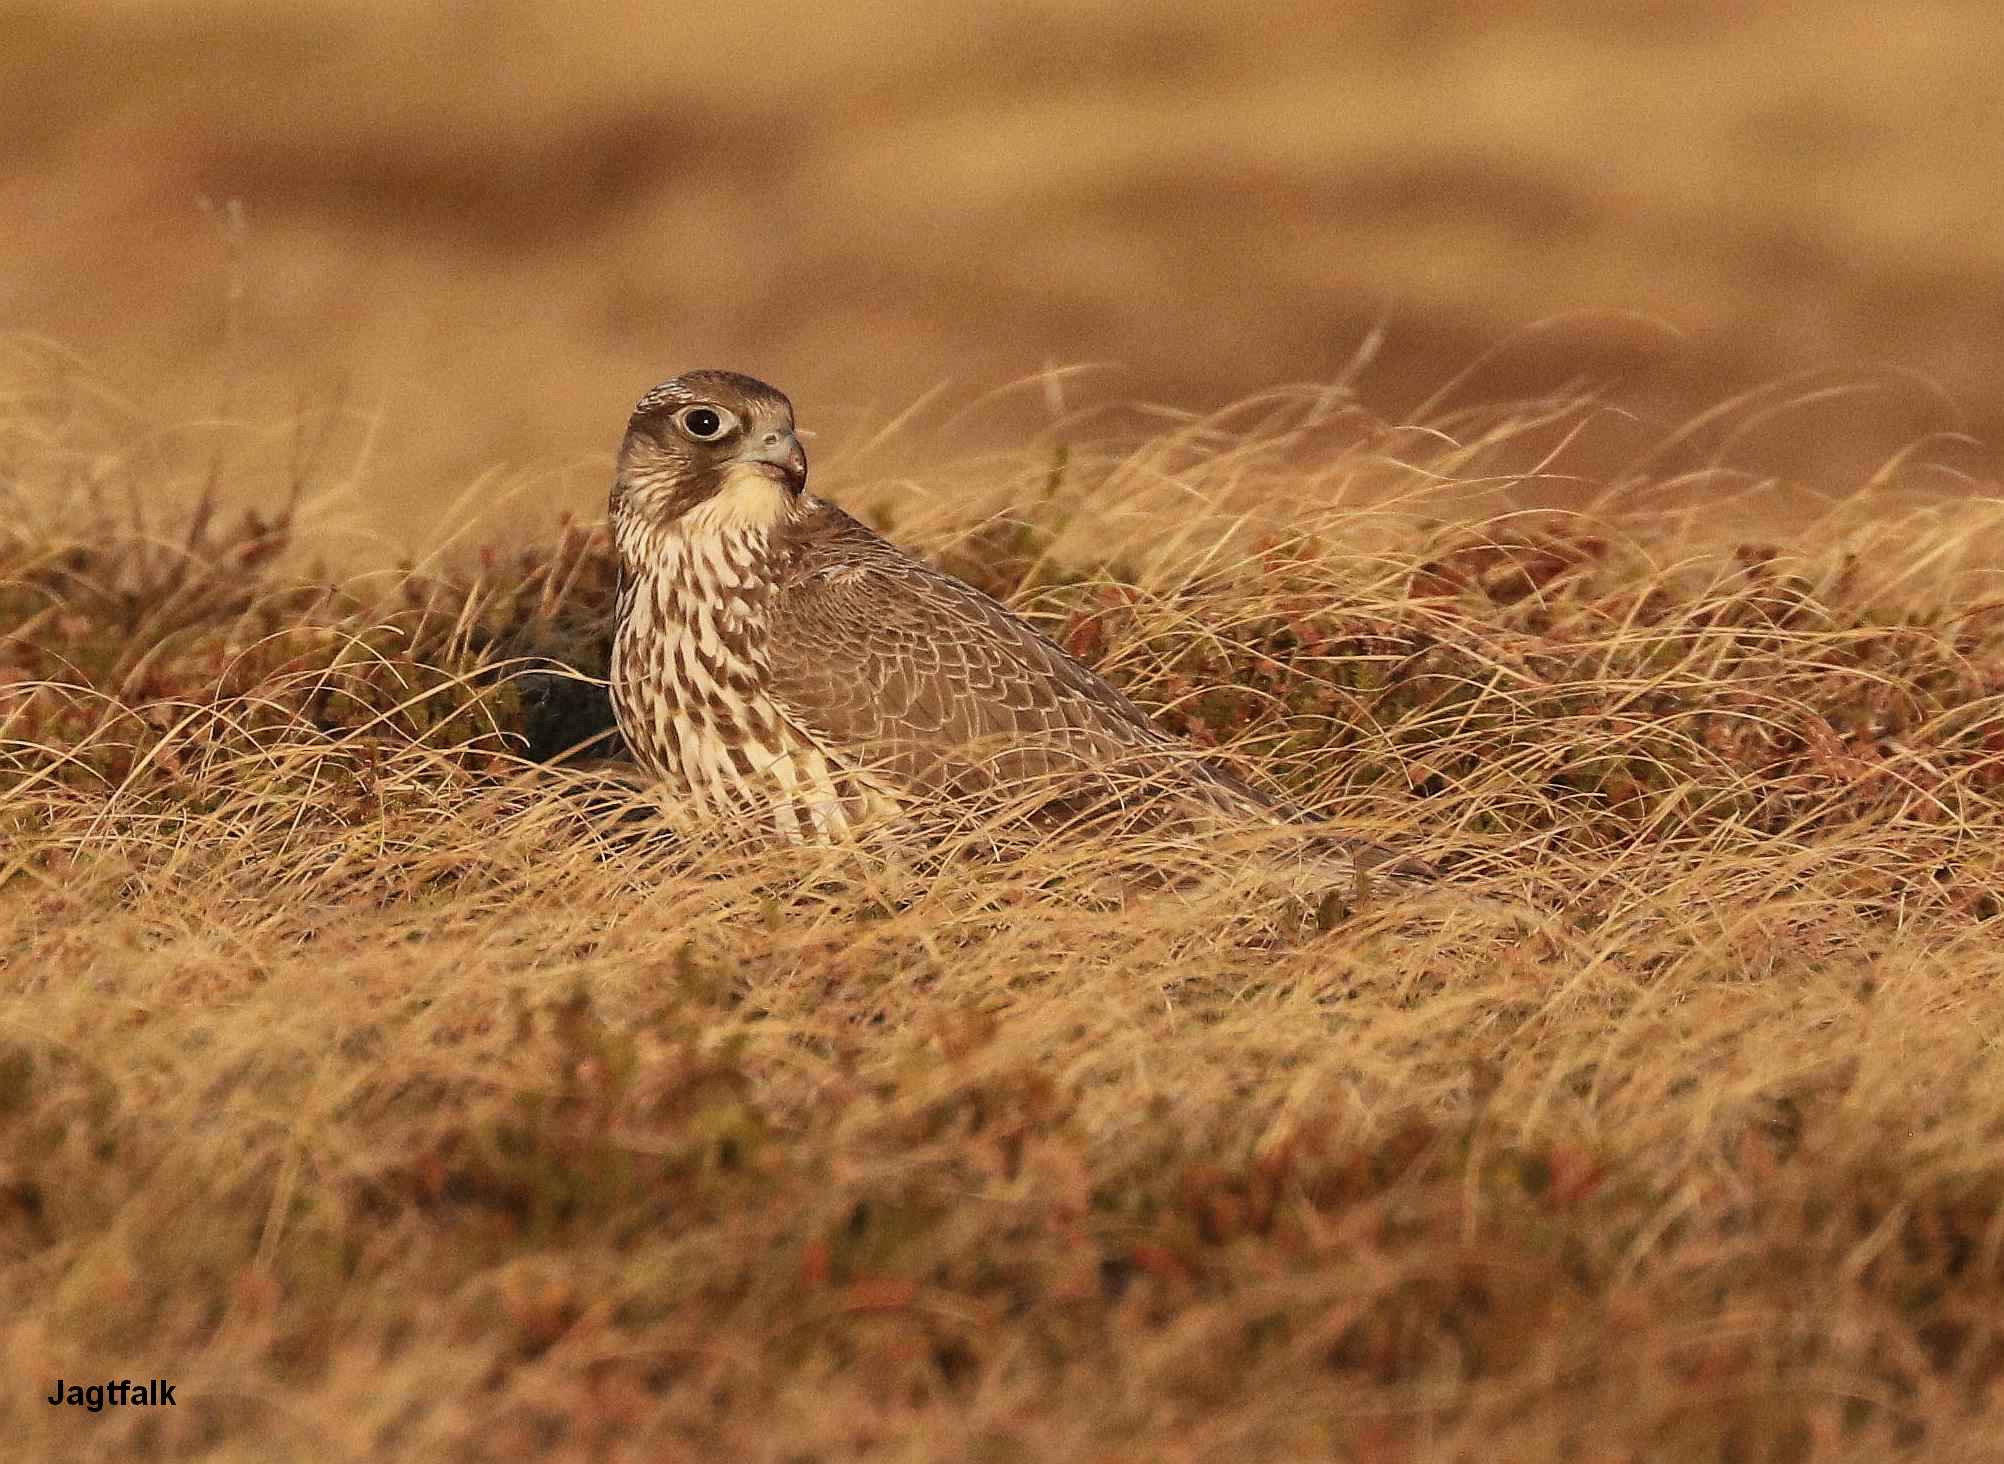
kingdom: Animalia
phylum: Chordata
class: Aves
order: Falconiformes
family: Falconidae
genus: Falco
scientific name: Falco rusticolus
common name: Jagtfalk
